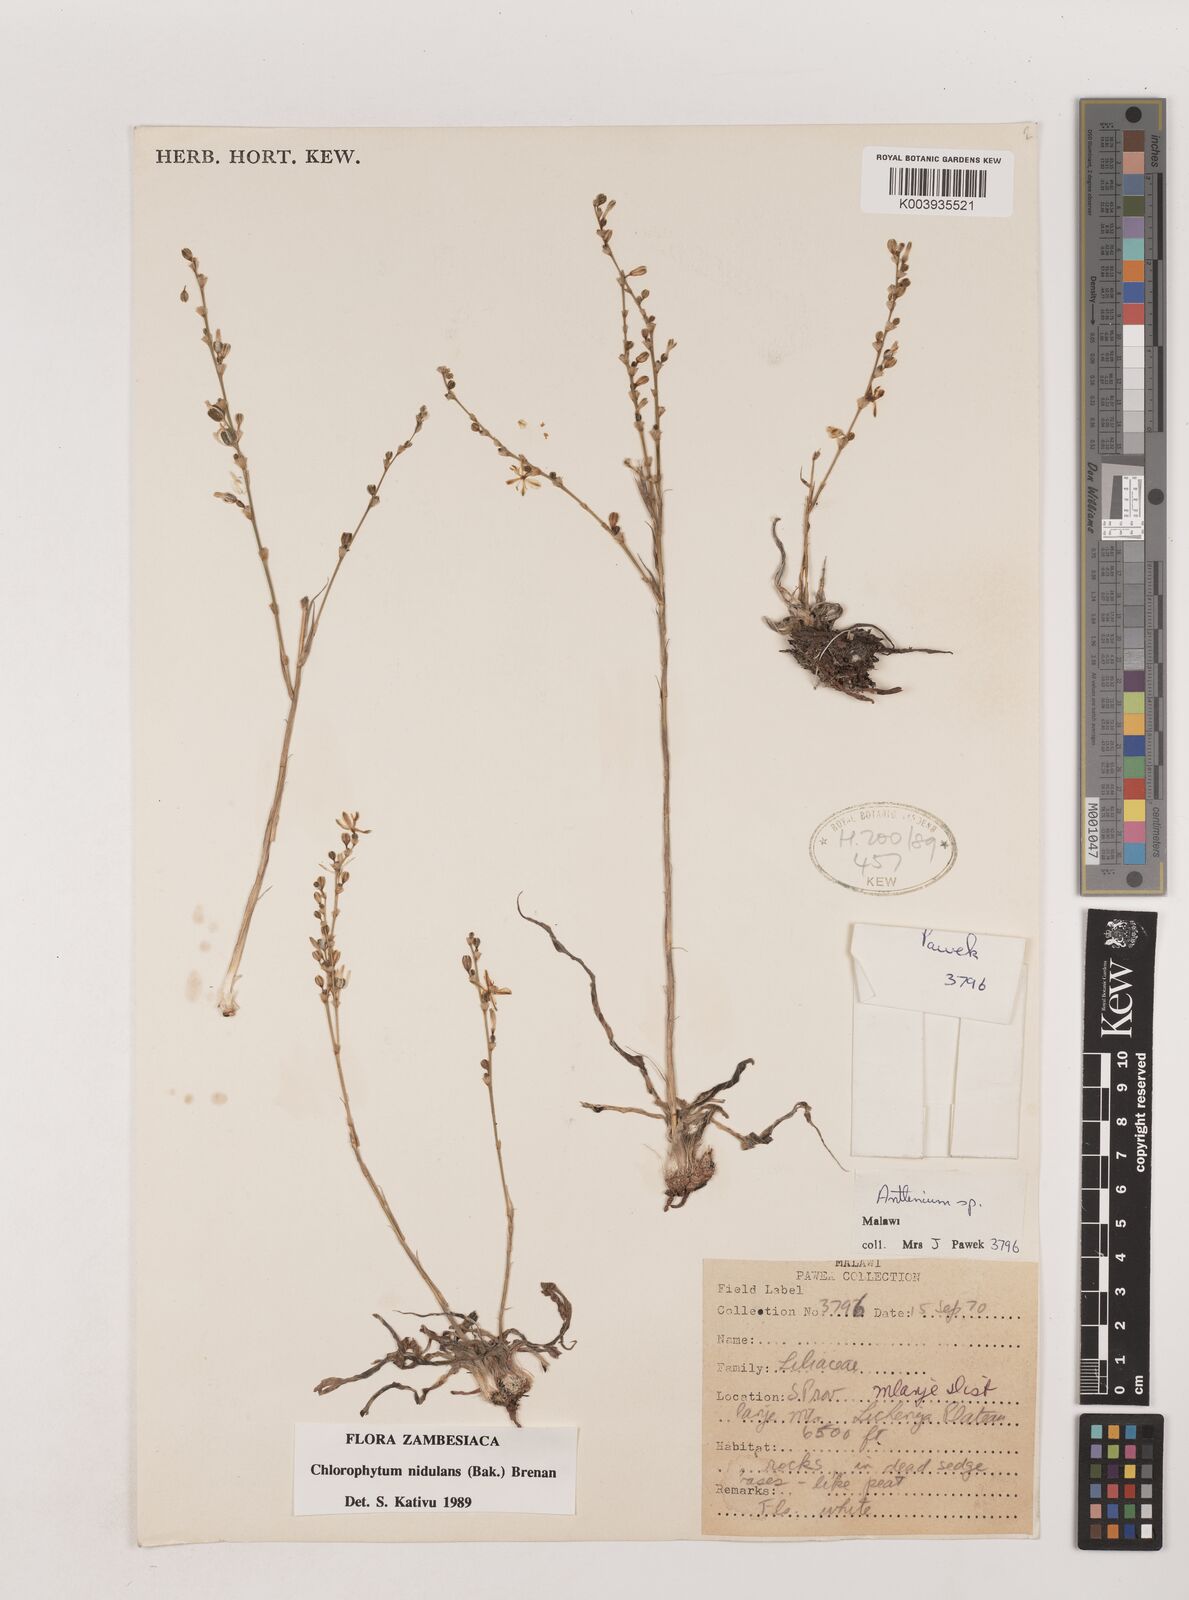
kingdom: Plantae
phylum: Tracheophyta
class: Liliopsida
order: Asparagales
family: Asparagaceae
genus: Chlorophytum
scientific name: Chlorophytum nidulans
